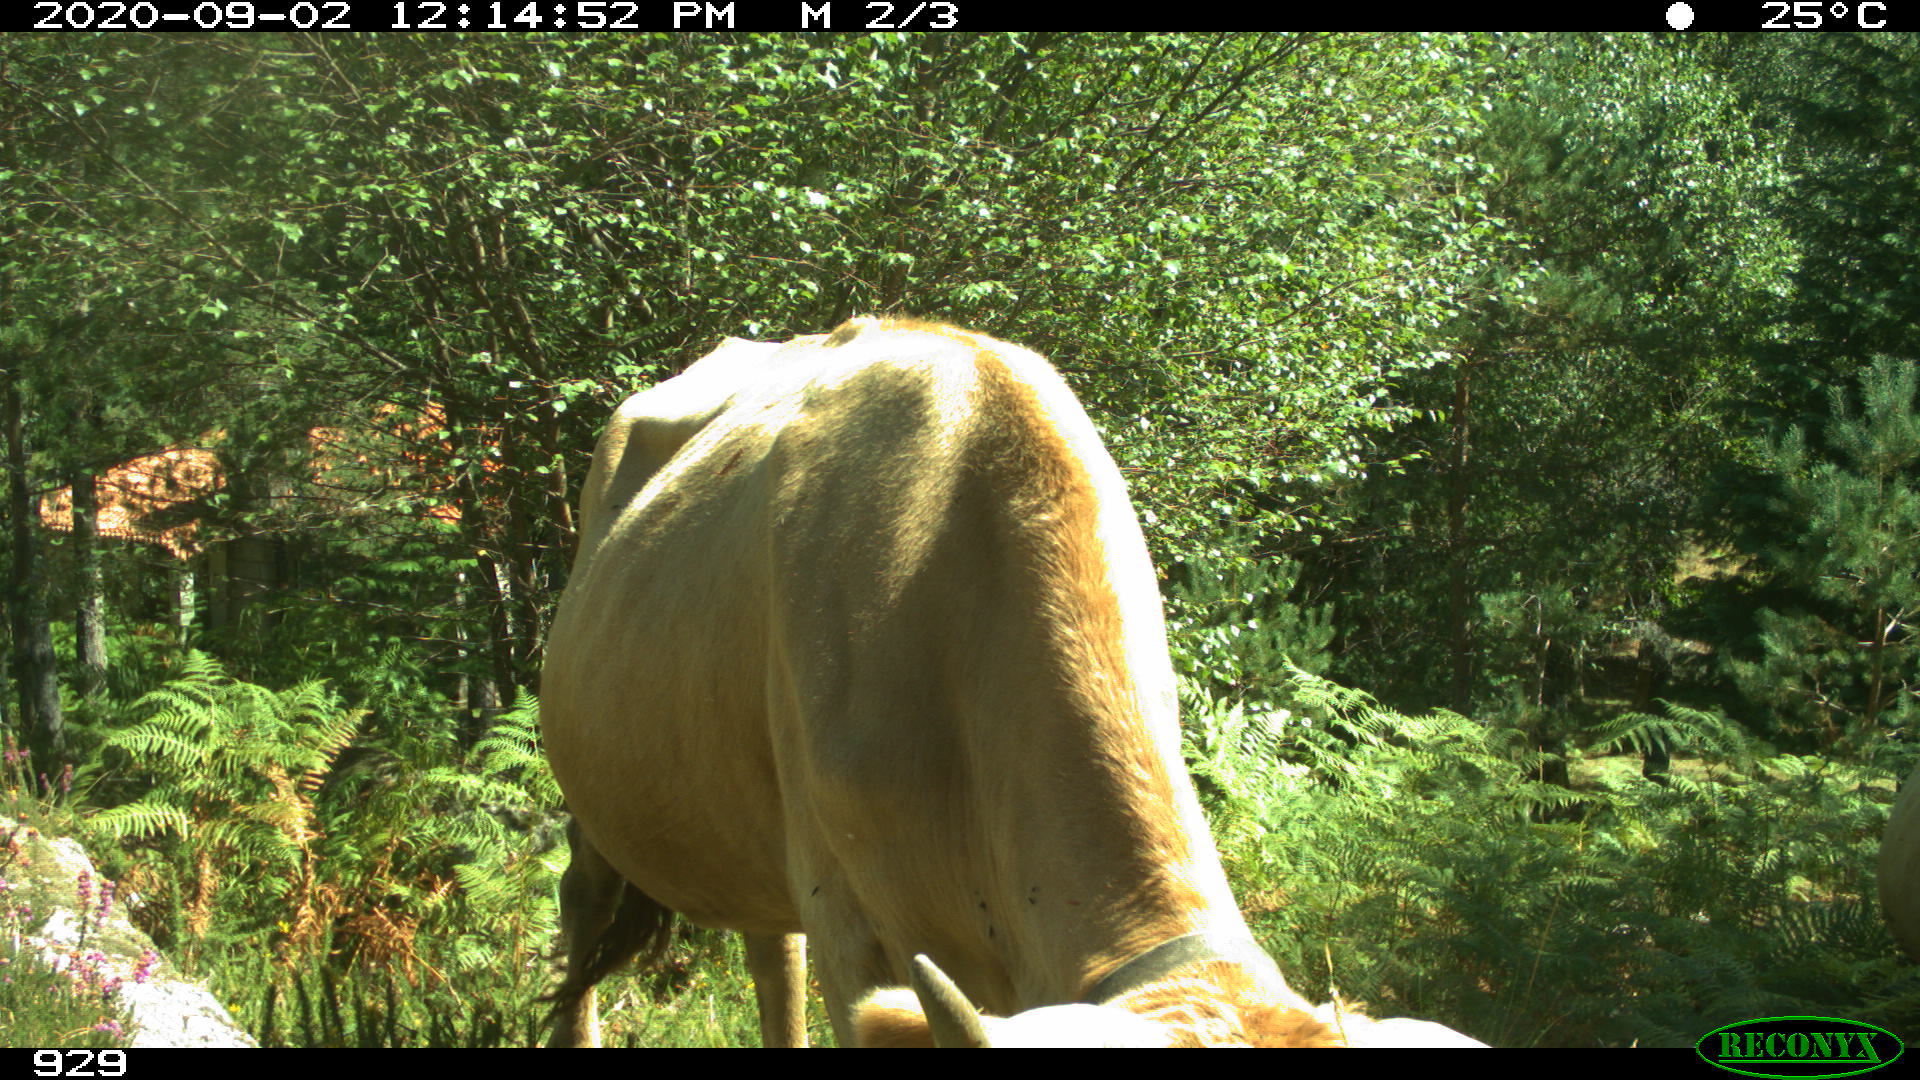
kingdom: Animalia
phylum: Chordata
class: Mammalia
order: Artiodactyla
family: Bovidae
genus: Bos
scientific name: Bos taurus
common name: Domesticated cattle
